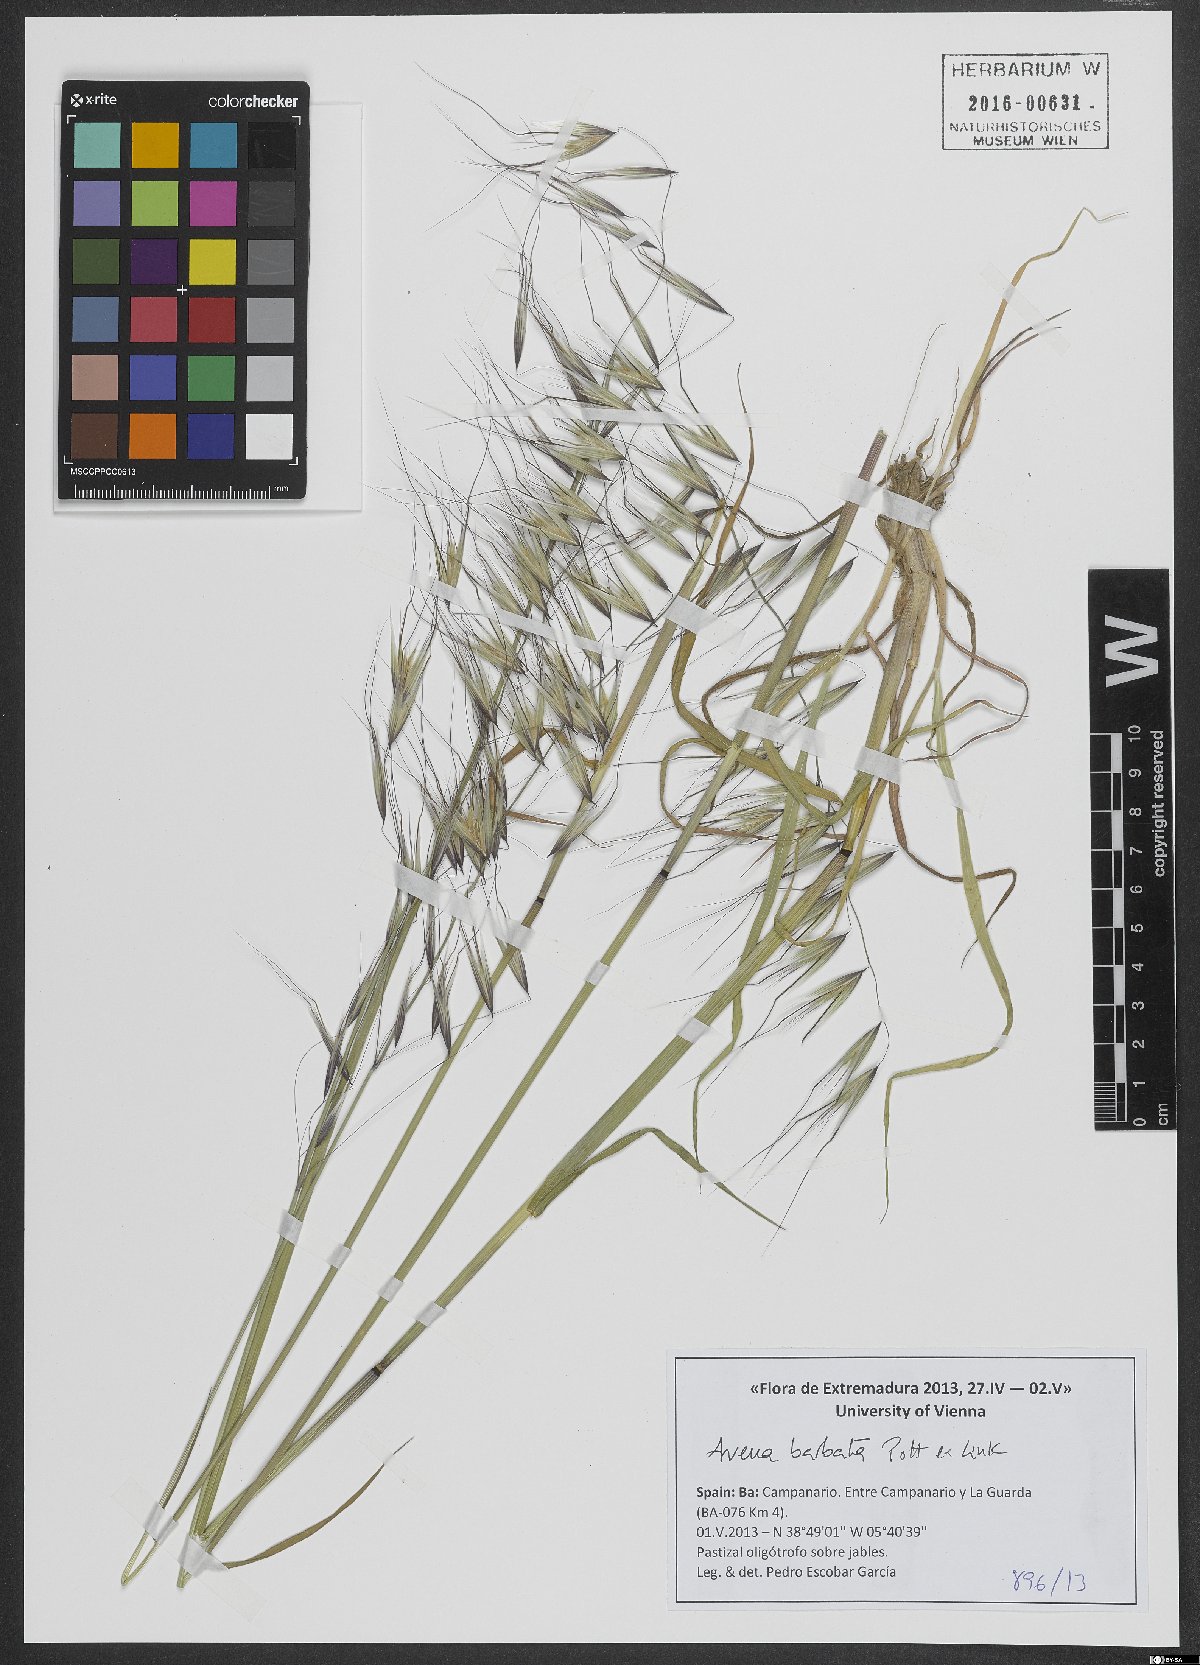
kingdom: Plantae
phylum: Tracheophyta
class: Liliopsida
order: Poales
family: Poaceae
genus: Avena
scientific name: Avena barbata
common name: Slender oat
